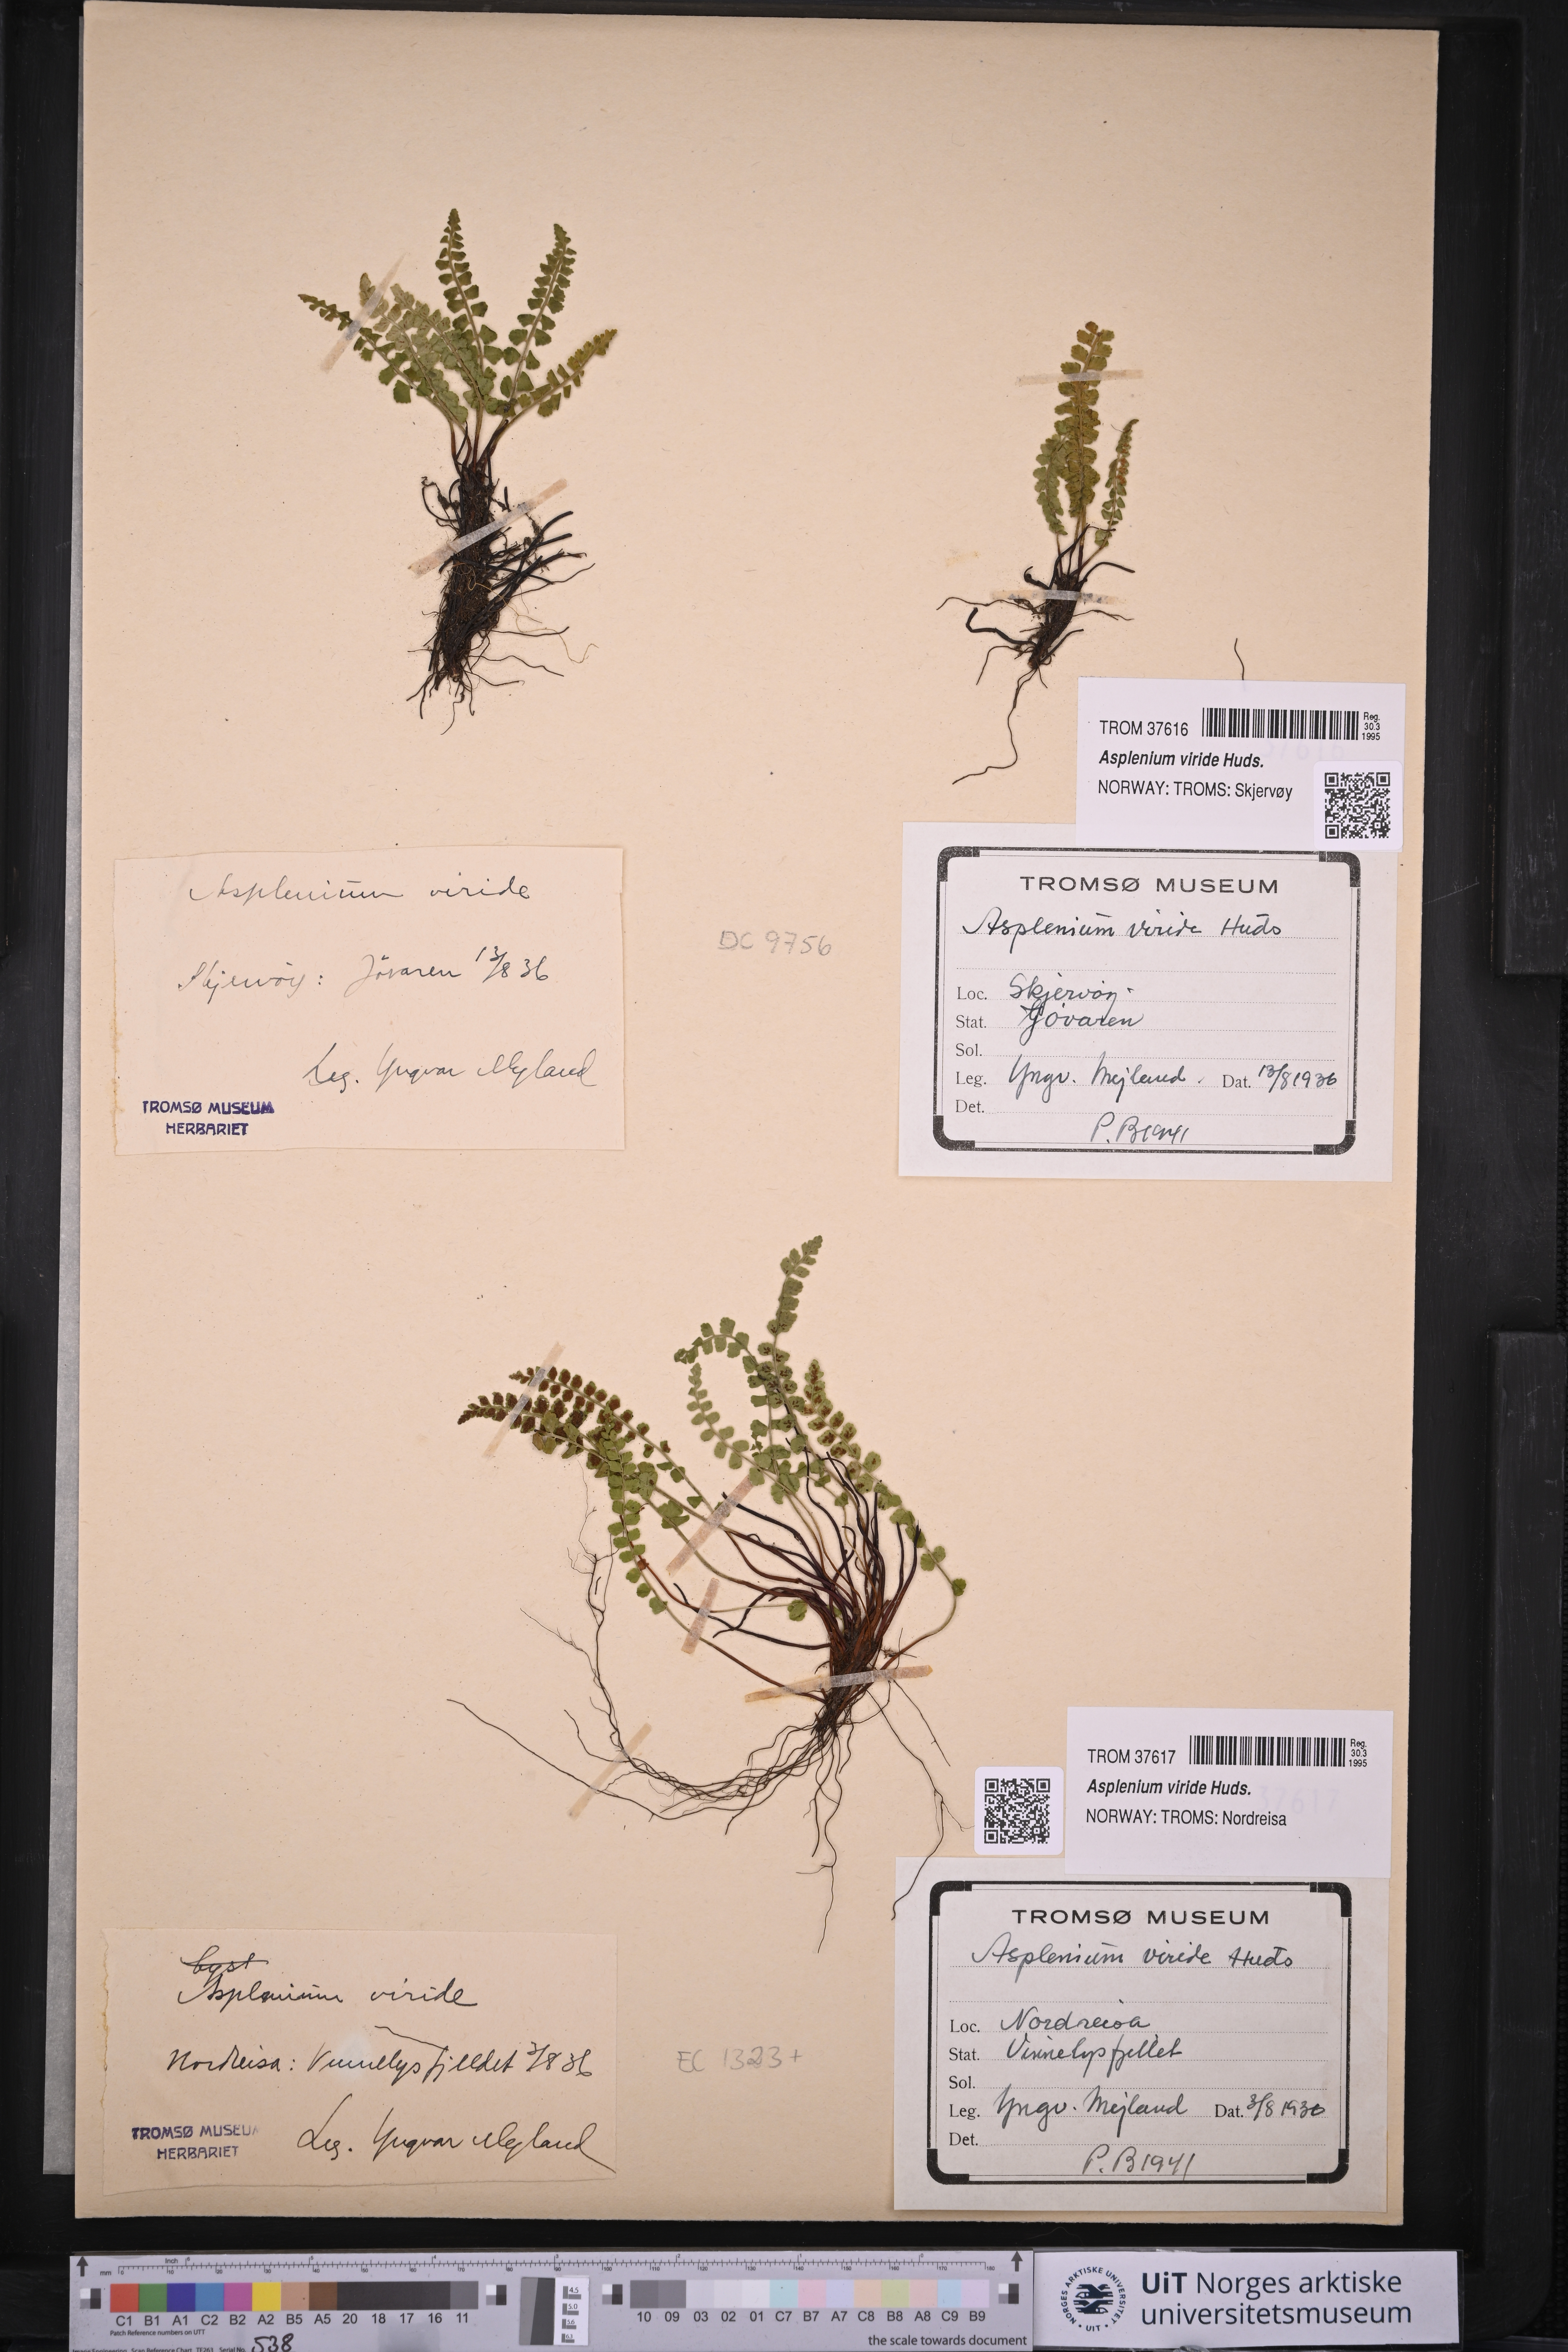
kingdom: Plantae
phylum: Tracheophyta
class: Polypodiopsida
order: Polypodiales
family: Aspleniaceae
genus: Asplenium
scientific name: Asplenium viride
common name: Green spleenwort
